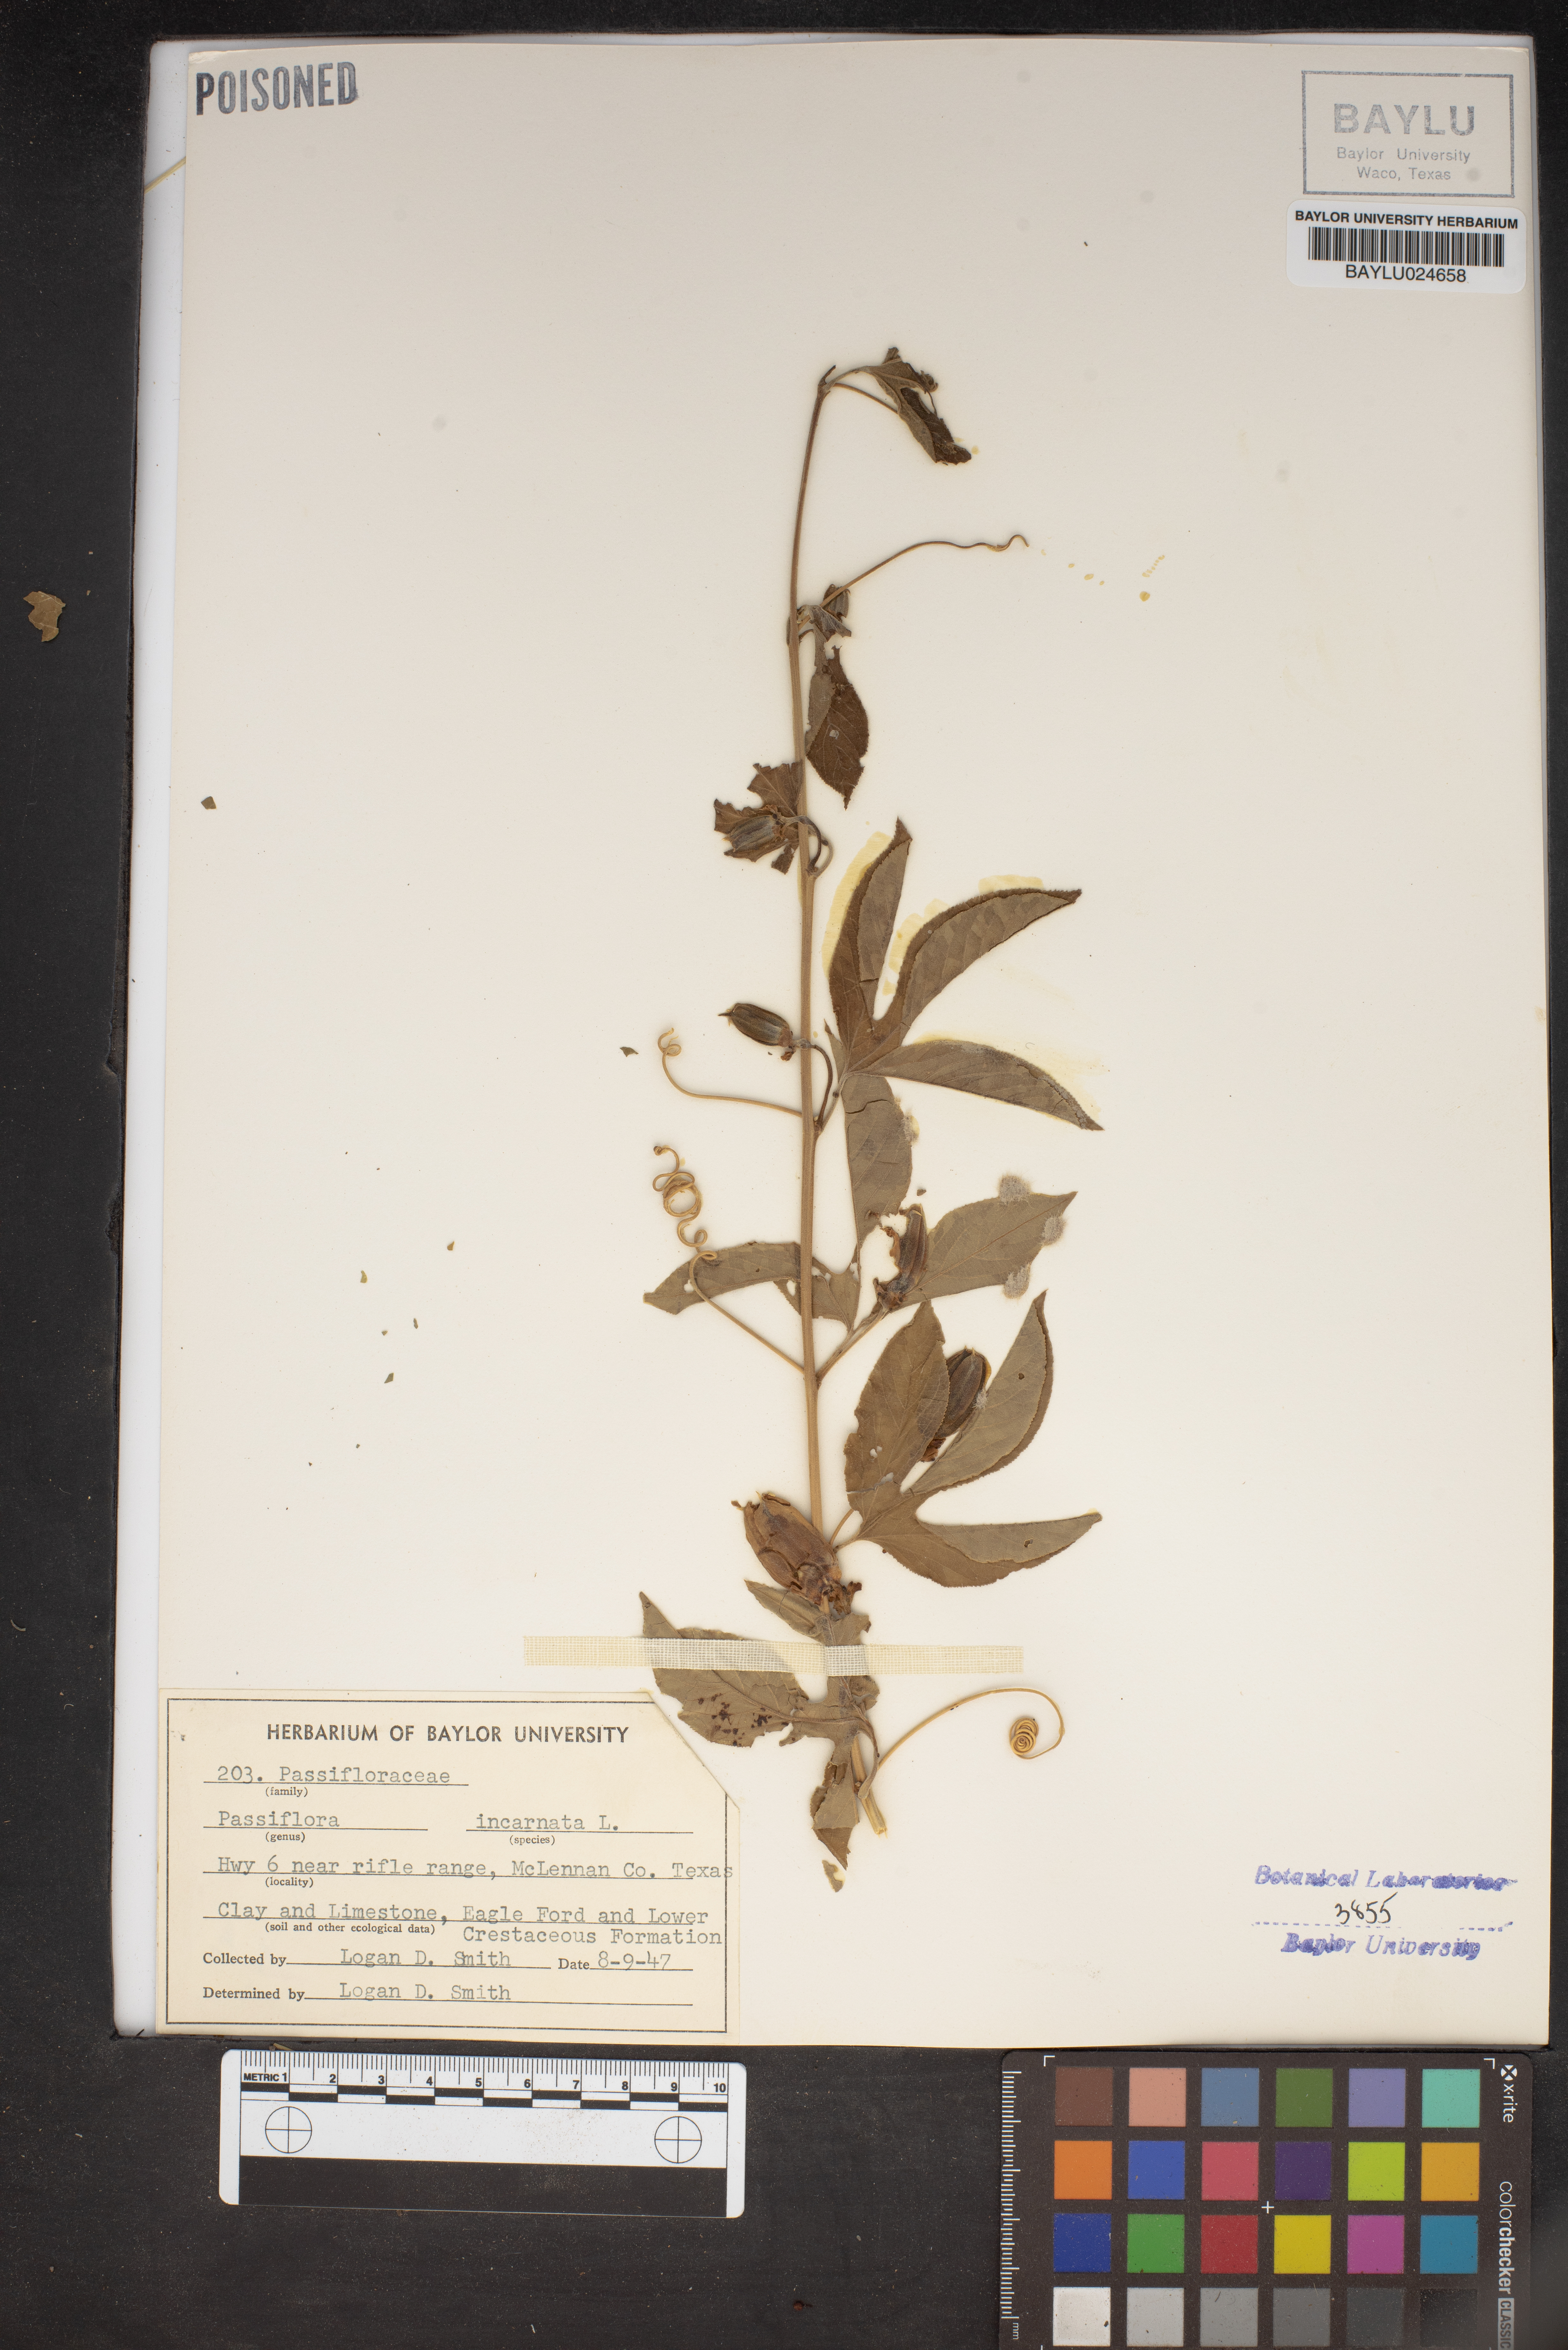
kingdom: Plantae
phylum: Tracheophyta
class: Magnoliopsida
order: Malpighiales
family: Passifloraceae
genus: Passiflora
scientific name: Passiflora incarnata
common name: Apricot-vine
